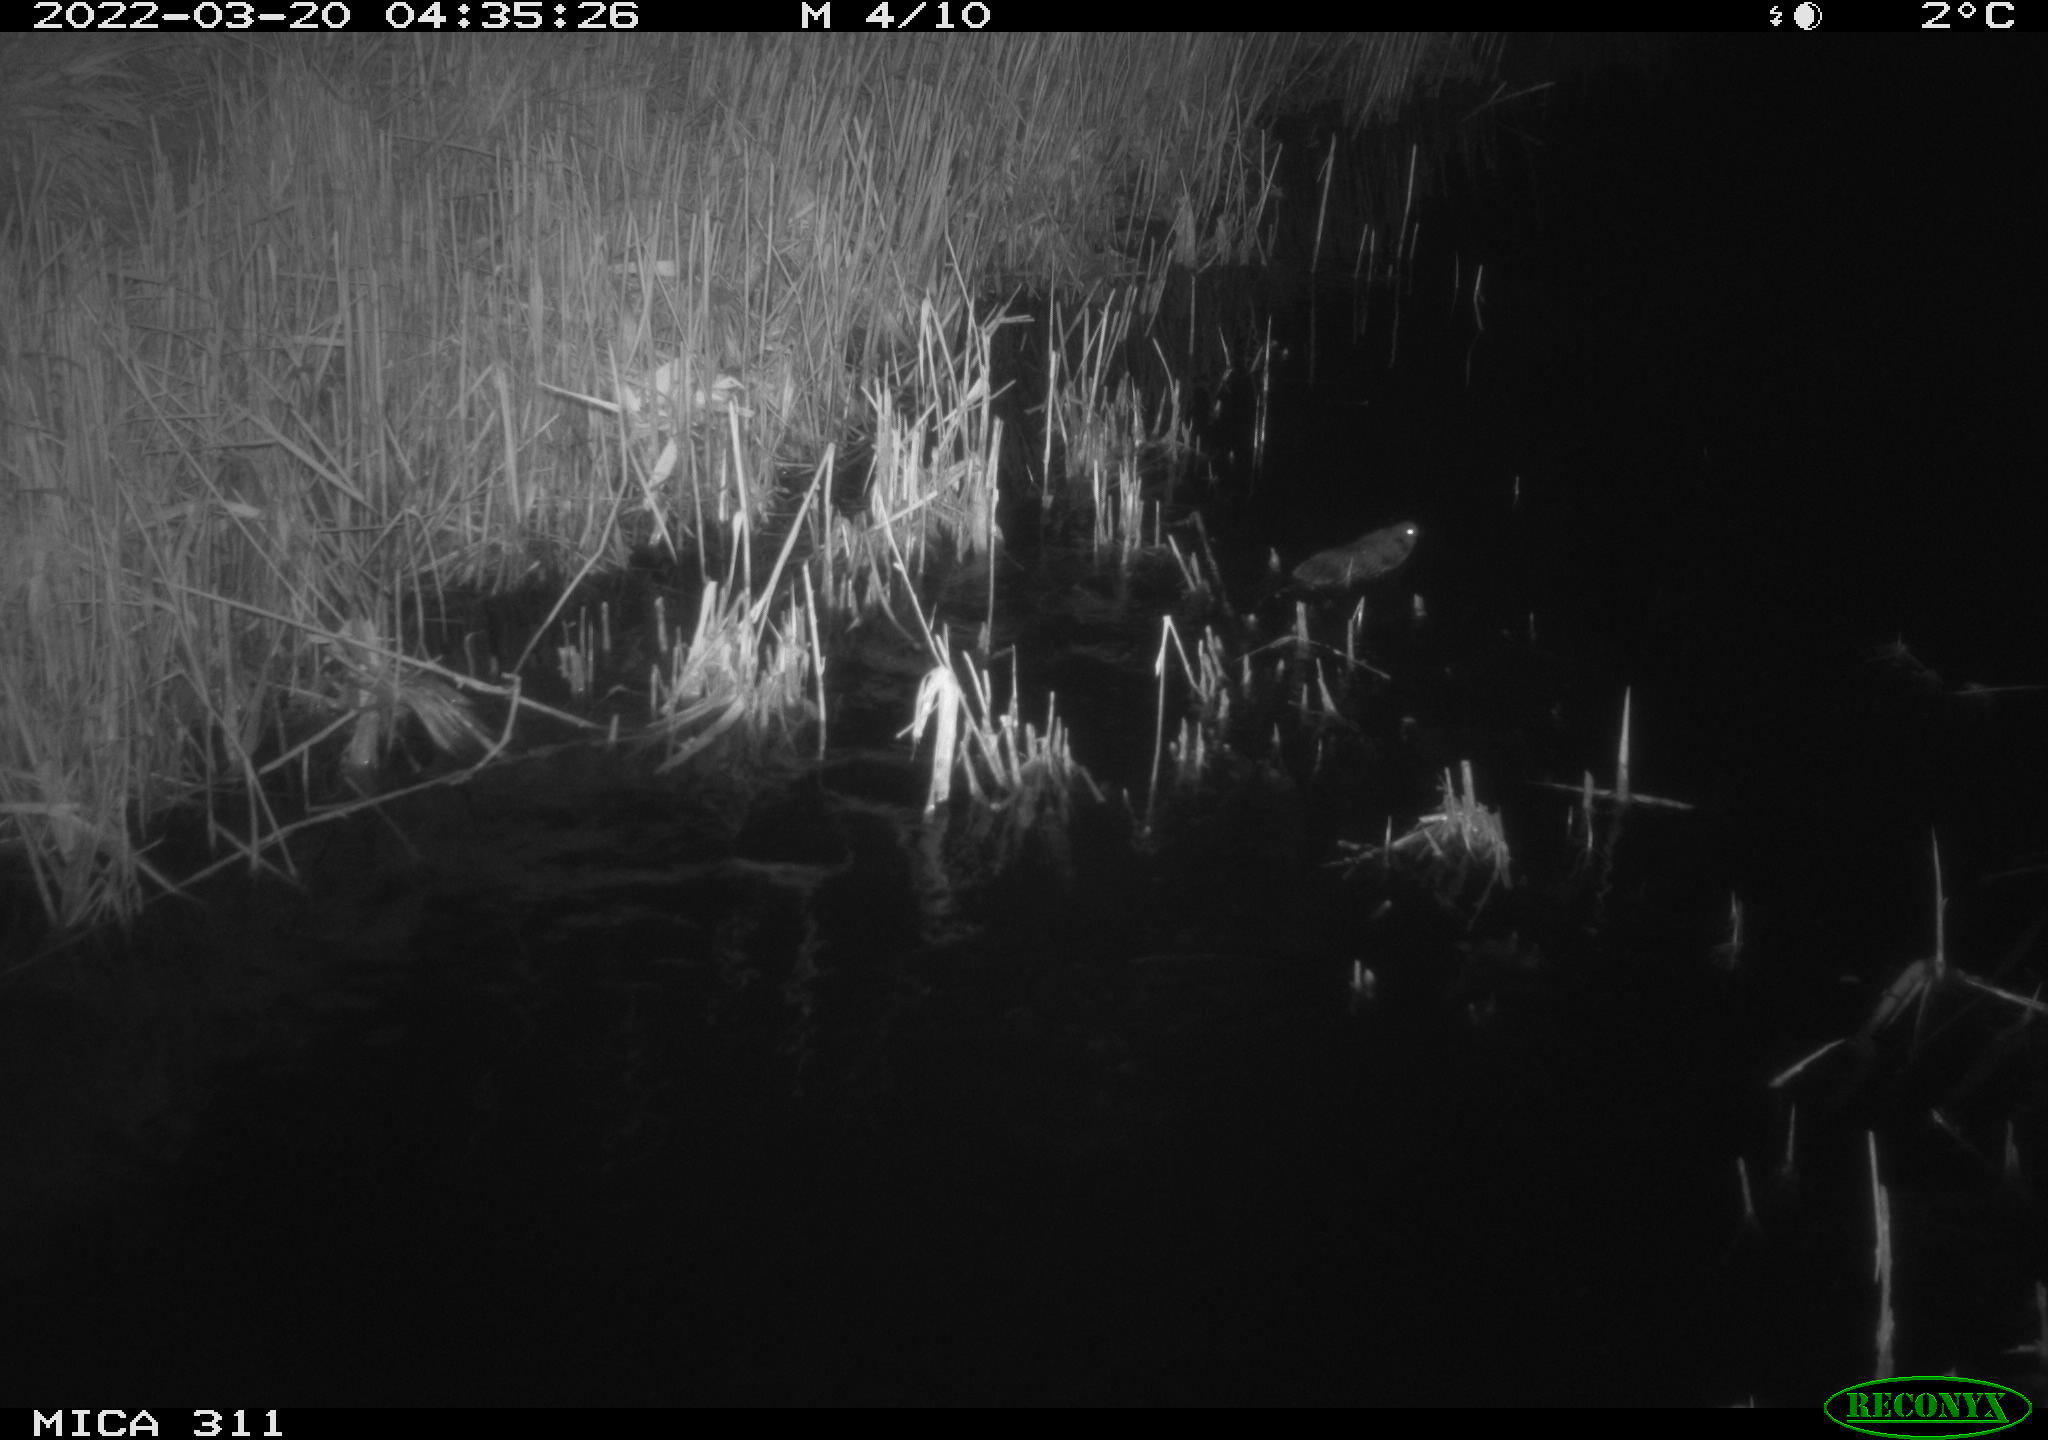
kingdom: Animalia
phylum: Chordata
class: Mammalia
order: Rodentia
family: Muridae
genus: Rattus
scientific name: Rattus norvegicus
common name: Brown rat
